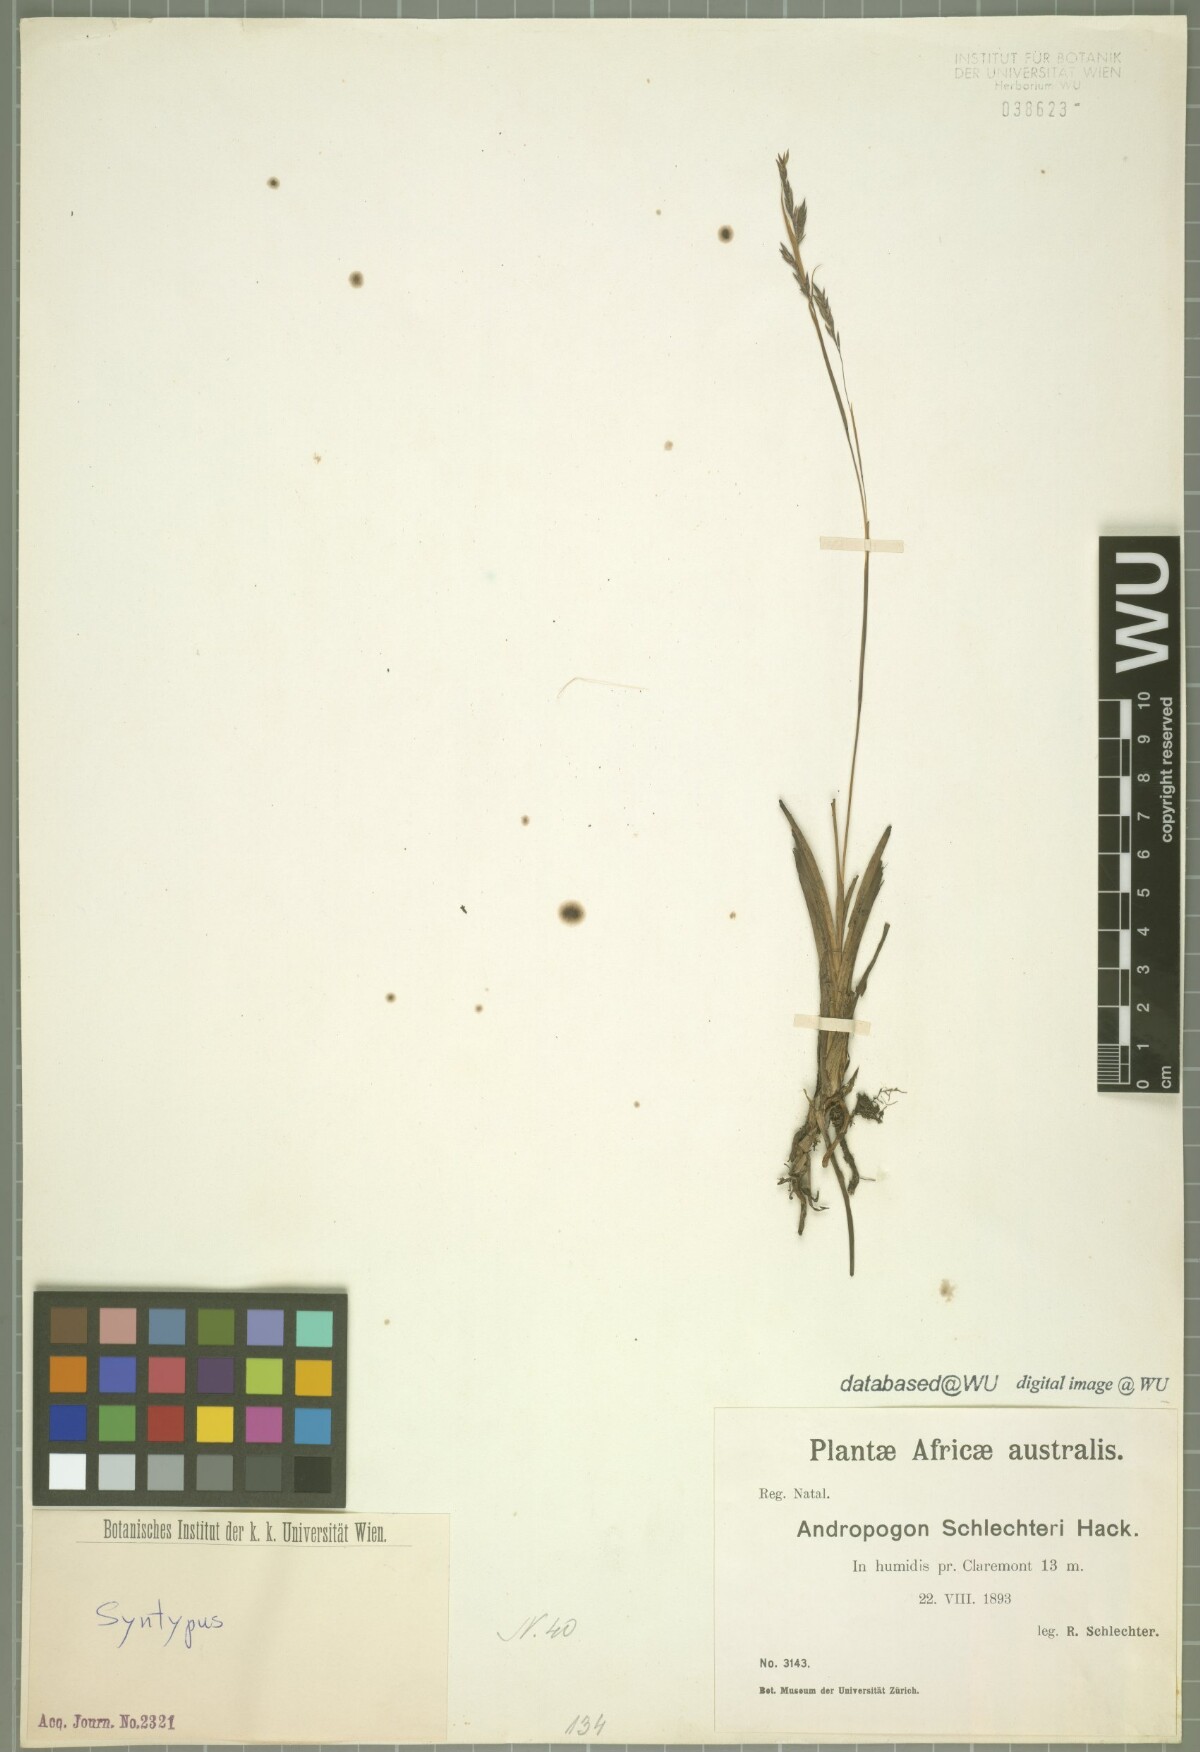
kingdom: Plantae
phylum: Tracheophyta
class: Liliopsida
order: Poales
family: Poaceae
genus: Andropogon
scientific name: Andropogon festuciformis
